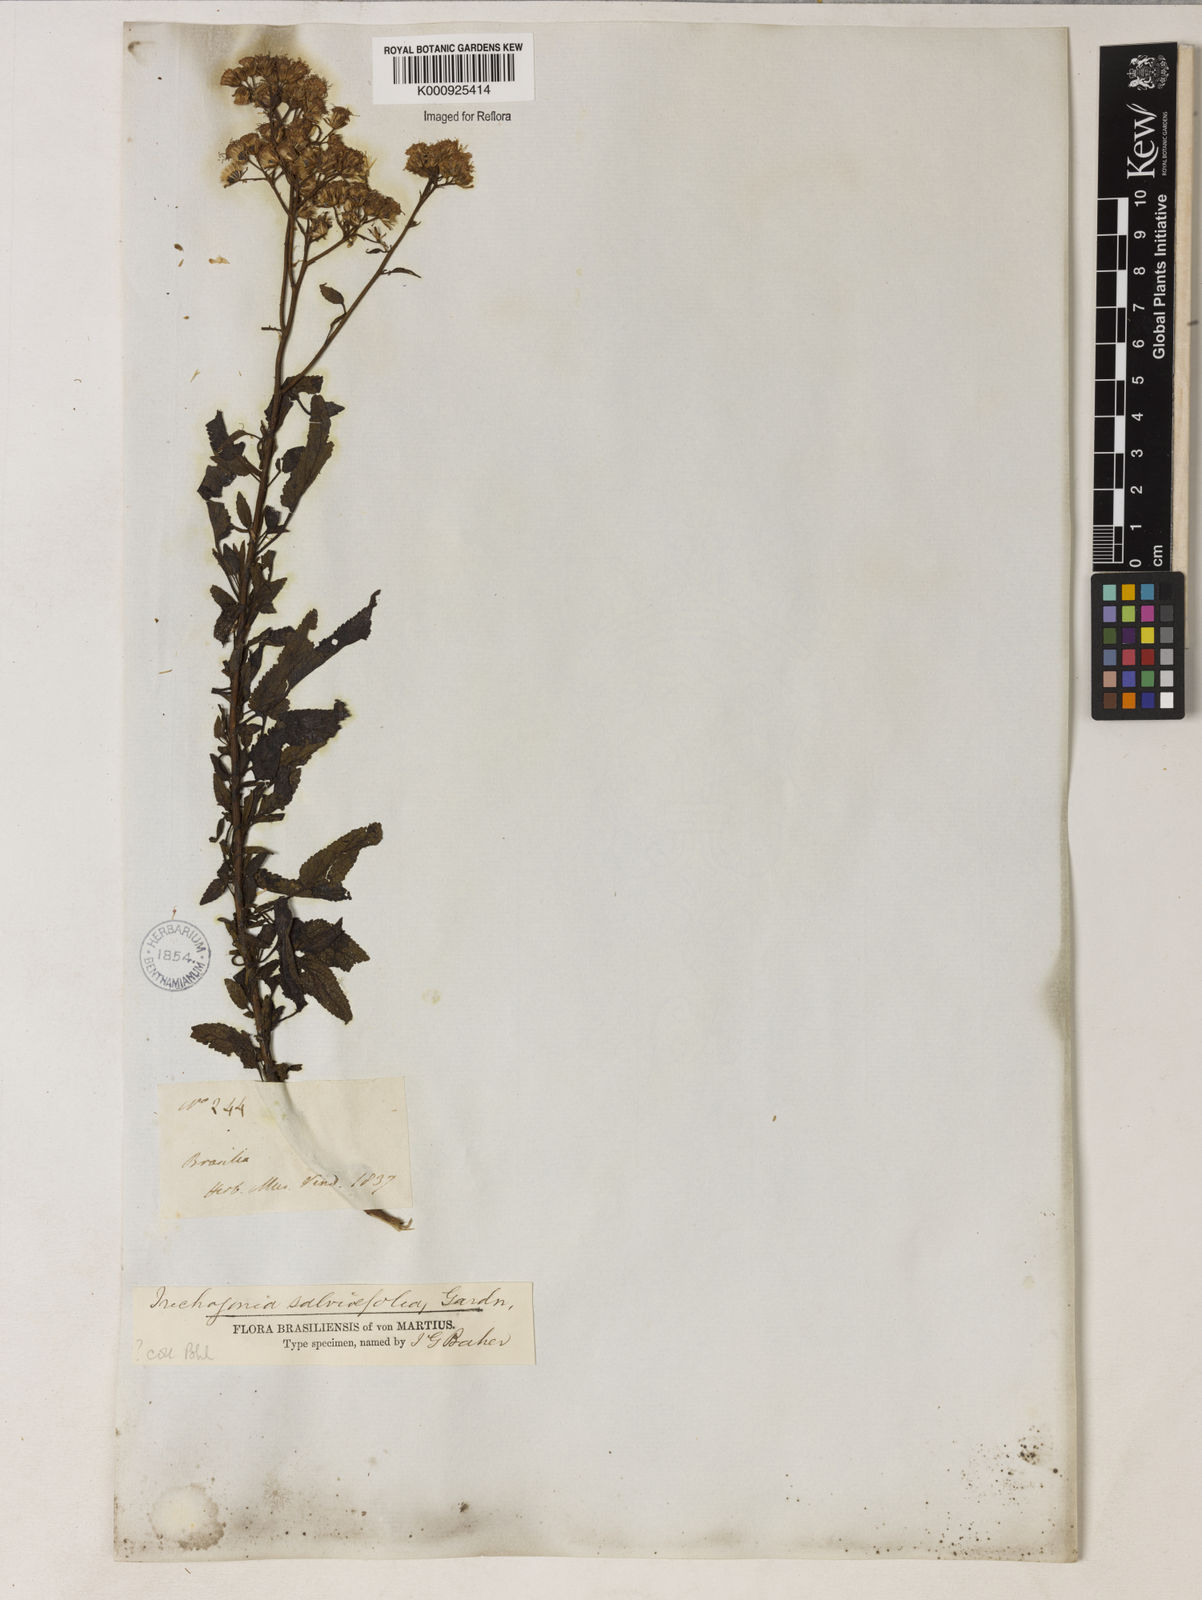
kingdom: Plantae
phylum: Tracheophyta
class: Magnoliopsida
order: Asterales
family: Asteraceae
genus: Trichogonia
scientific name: Trichogonia
